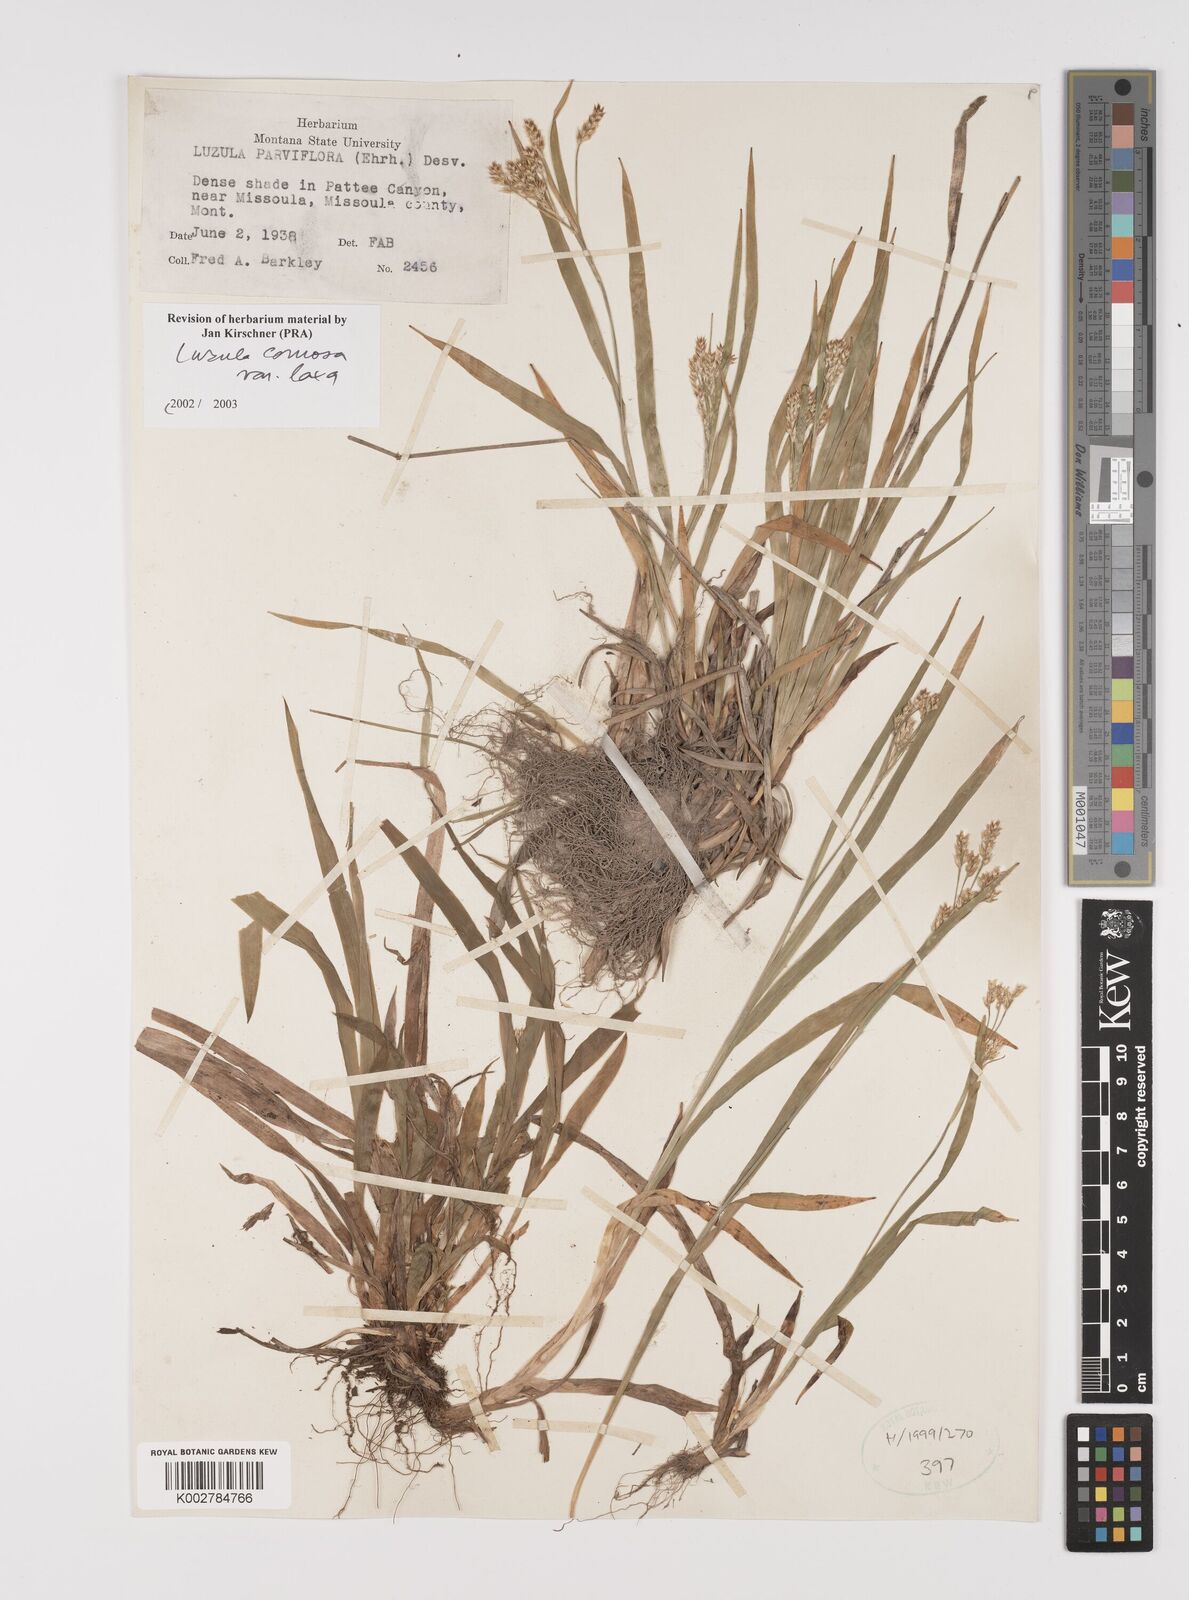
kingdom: Plantae
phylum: Tracheophyta
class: Liliopsida
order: Poales
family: Juncaceae
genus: Luzula
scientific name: Luzula comosa
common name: Pacific woodrush
